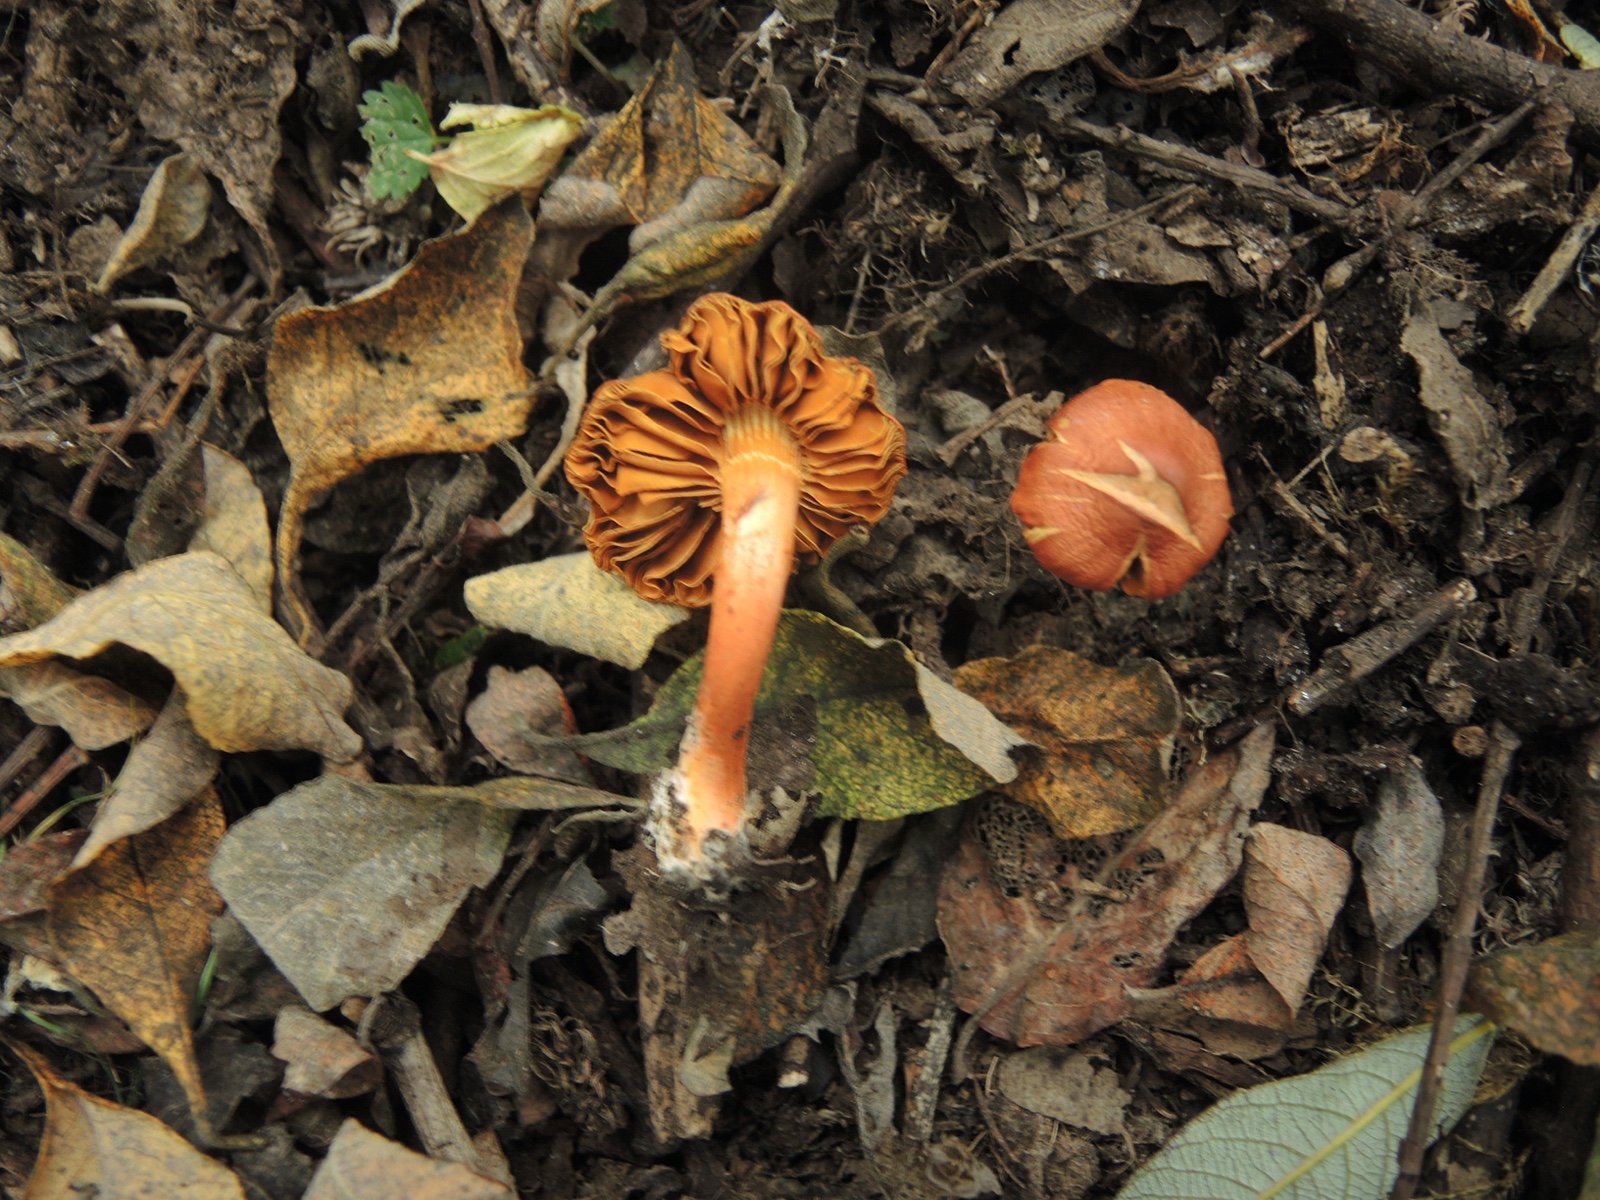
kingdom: Fungi
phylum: Basidiomycota
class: Agaricomycetes
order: Agaricales
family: Cortinariaceae
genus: Cortinarius
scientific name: Cortinarius uliginosus
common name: mose-slørhat
